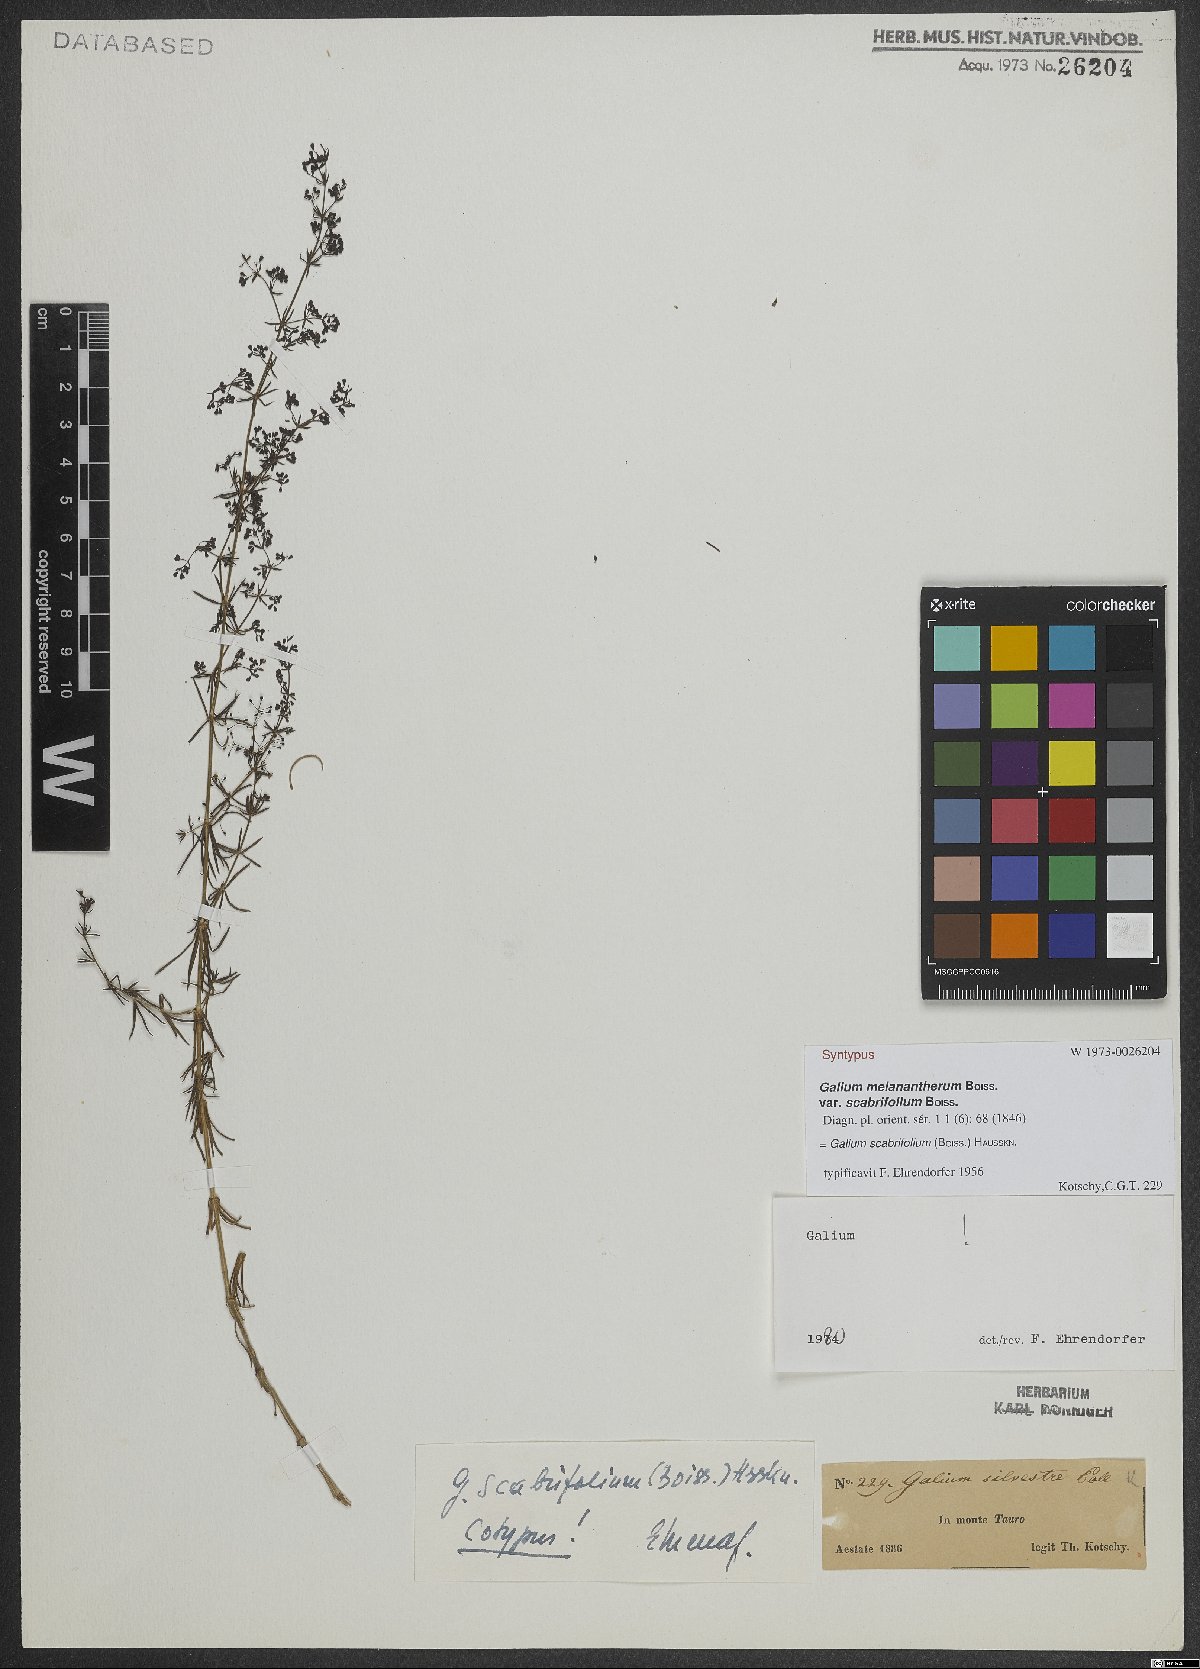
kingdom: Plantae
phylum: Tracheophyta
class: Magnoliopsida
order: Gentianales
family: Rubiaceae
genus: Galium
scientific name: Galium scabrifolium
